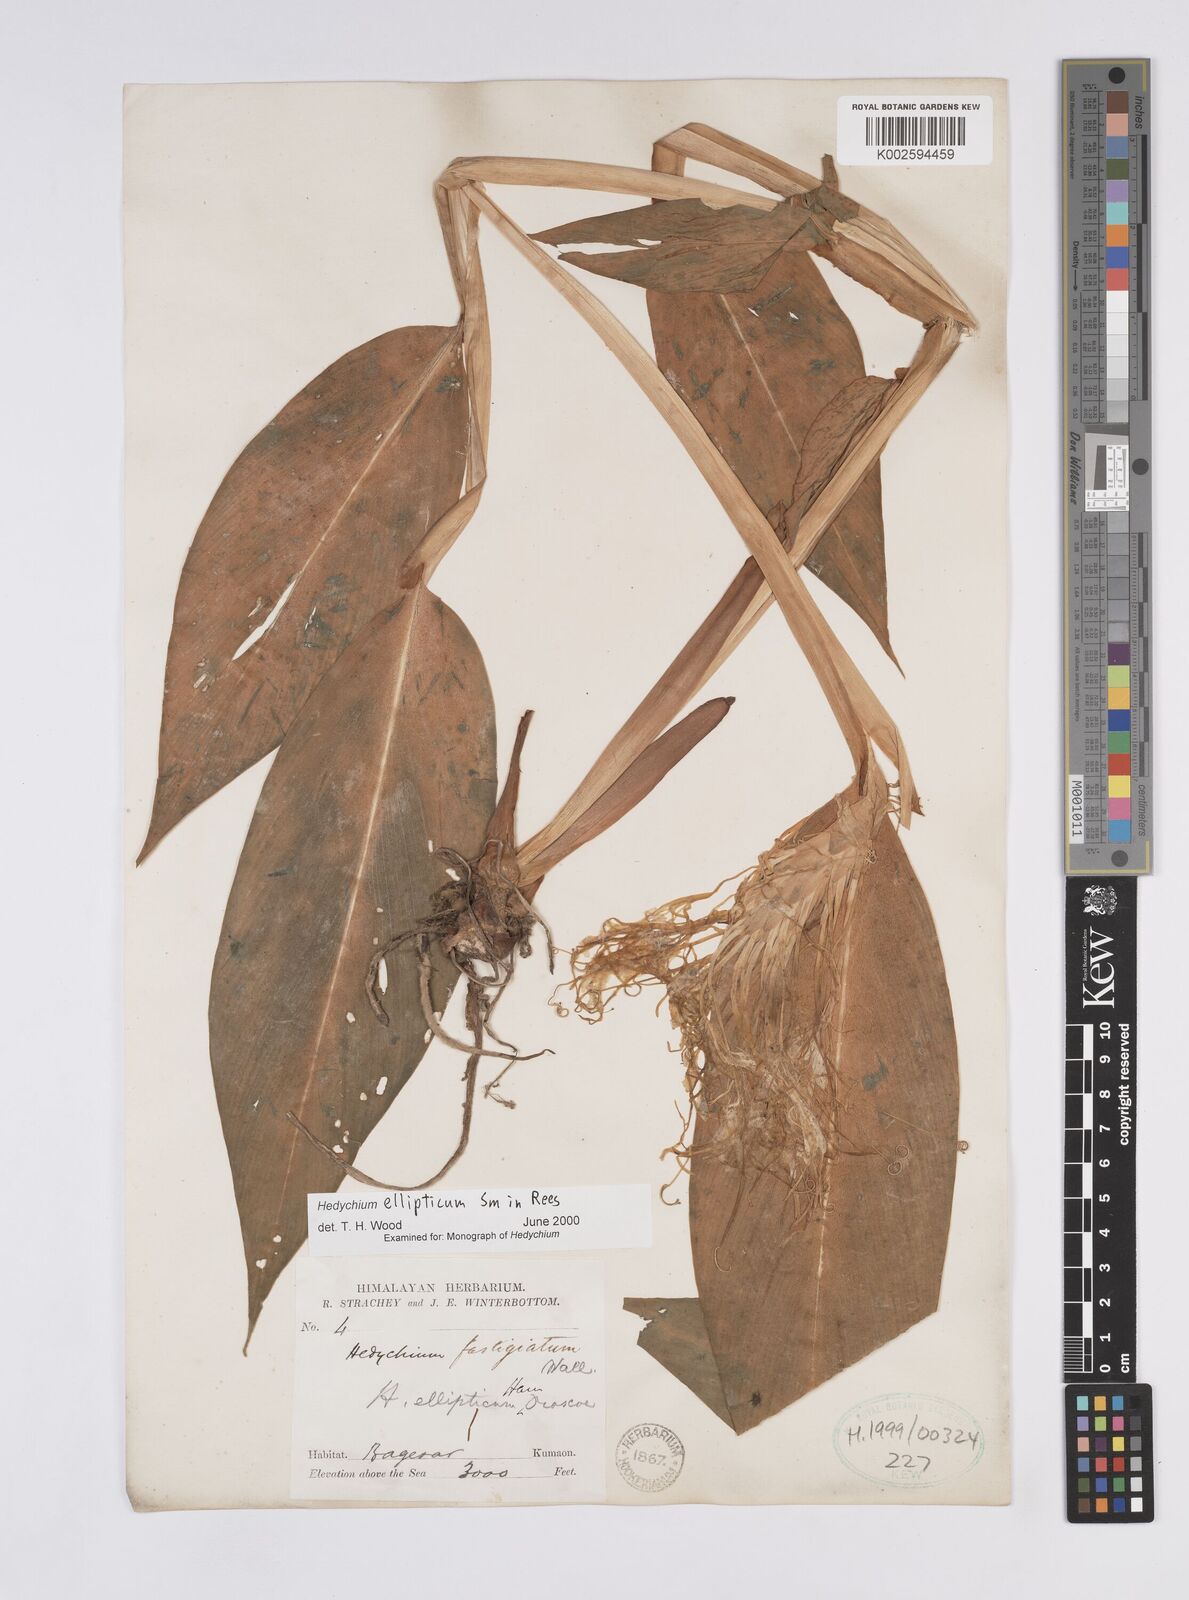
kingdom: Plantae
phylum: Tracheophyta
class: Liliopsida
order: Zingiberales
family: Zingiberaceae
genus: Hedychium
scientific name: Hedychium ellipticum
